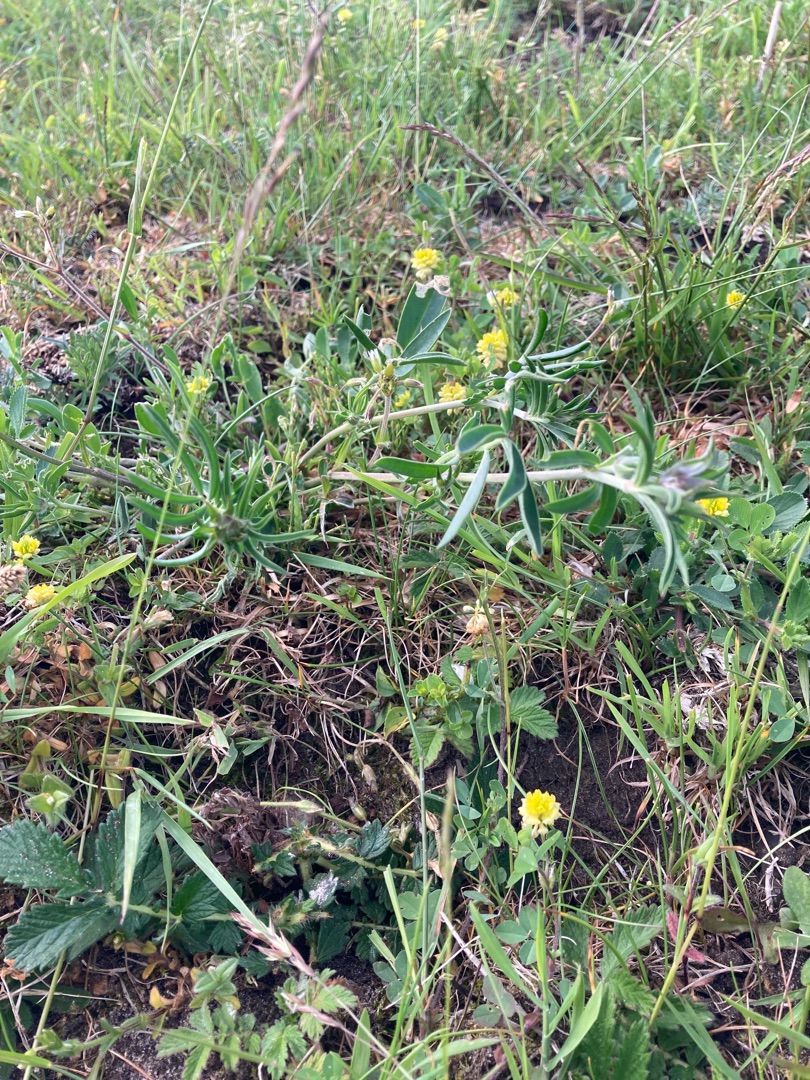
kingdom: Plantae
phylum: Tracheophyta
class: Magnoliopsida
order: Fabales
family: Fabaceae
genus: Anthyllis
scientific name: Anthyllis vulneraria
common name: Rundbælg
